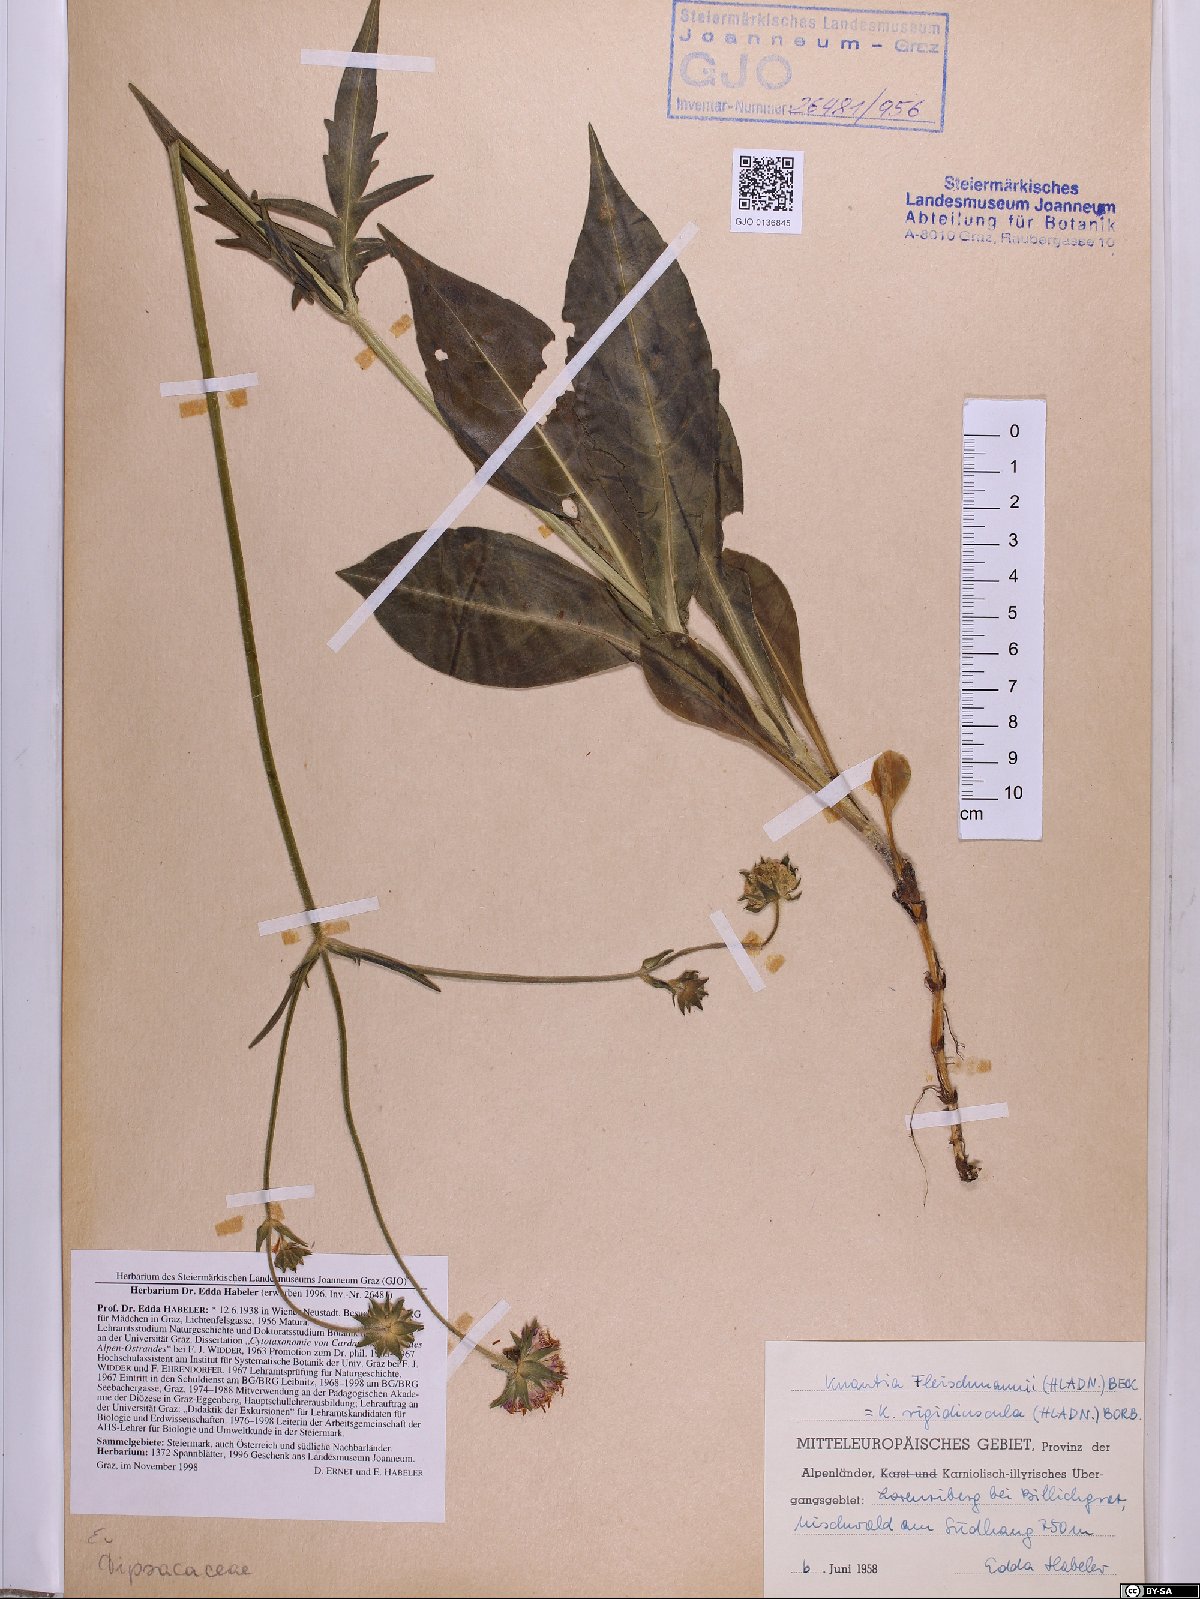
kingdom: Plantae
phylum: Tracheophyta
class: Magnoliopsida
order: Dipsacales
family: Caprifoliaceae
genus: Knautia
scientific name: Knautia fleischmannii
